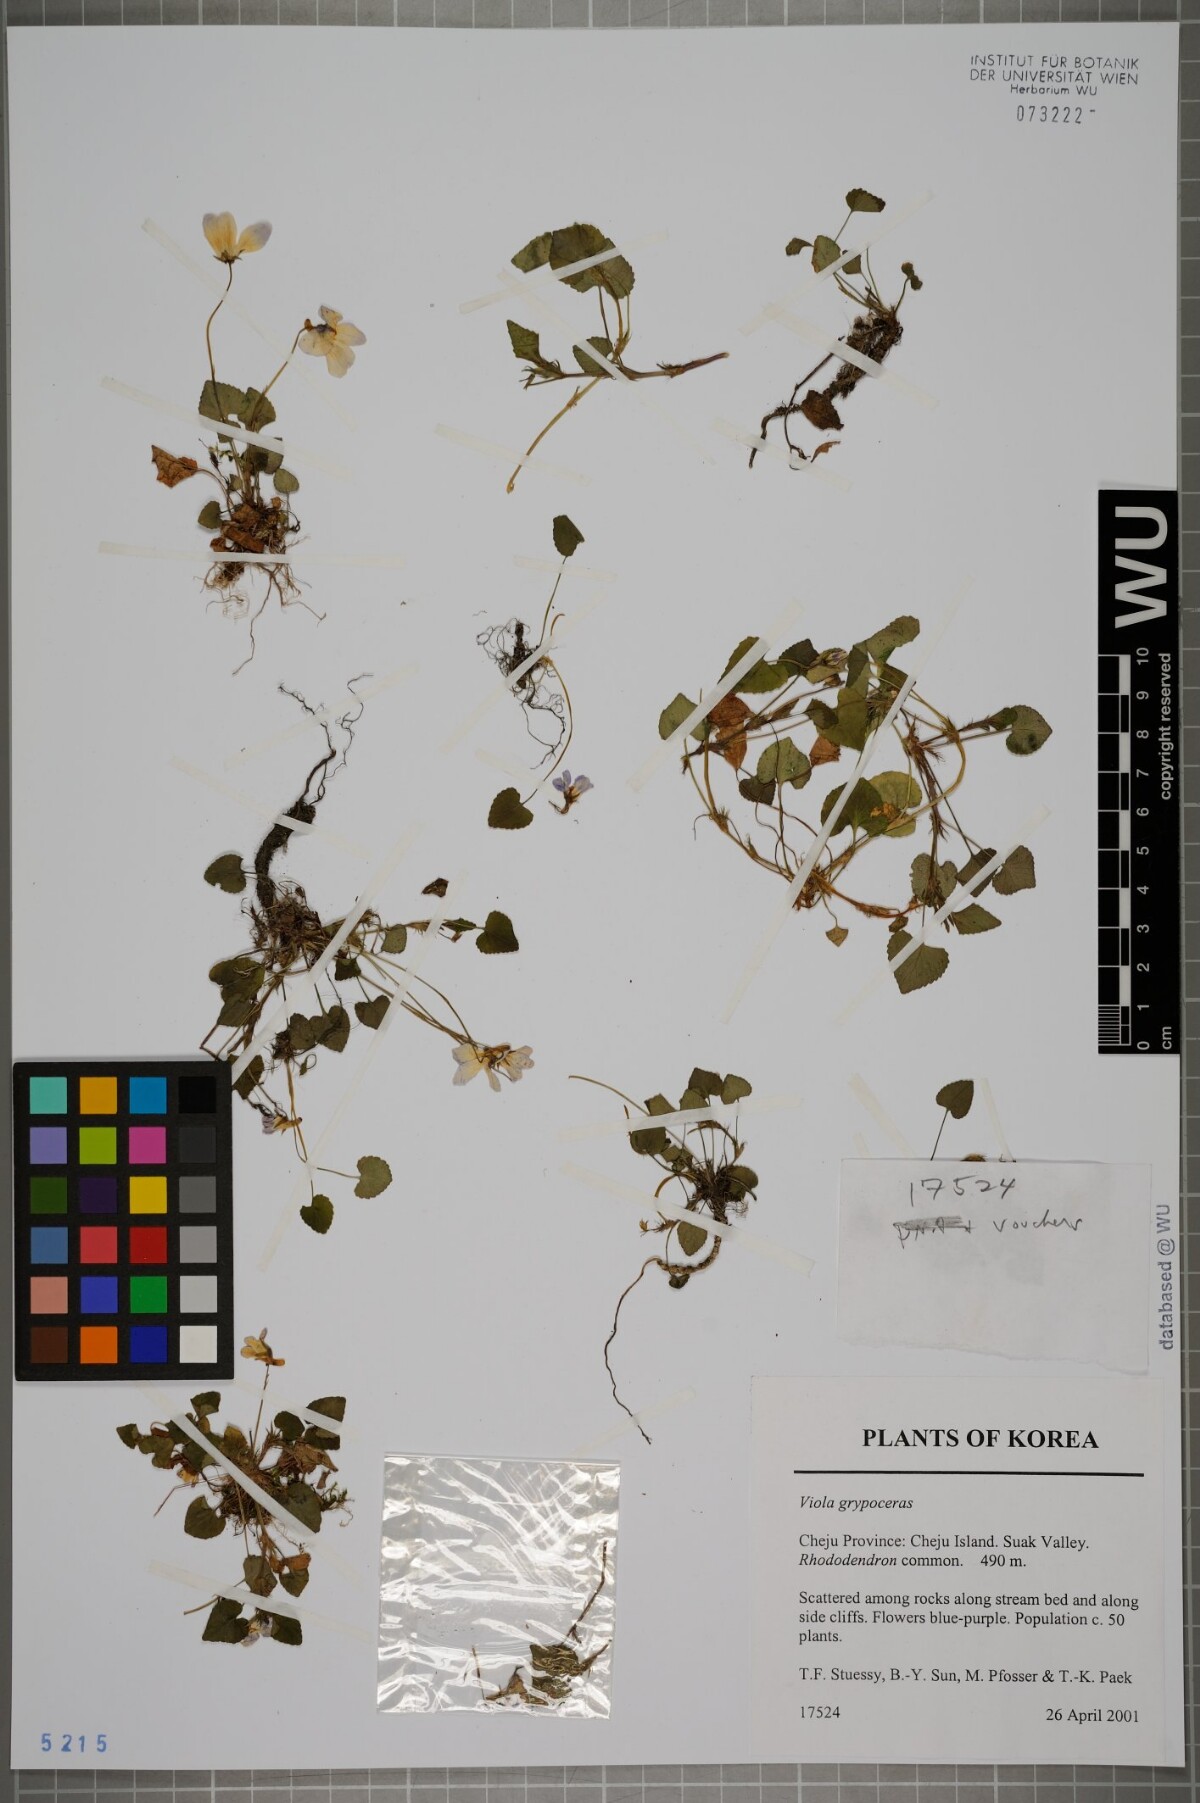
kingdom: Plantae
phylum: Tracheophyta
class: Magnoliopsida
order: Malpighiales
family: Violaceae
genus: Viola
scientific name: Viola grypoceras
